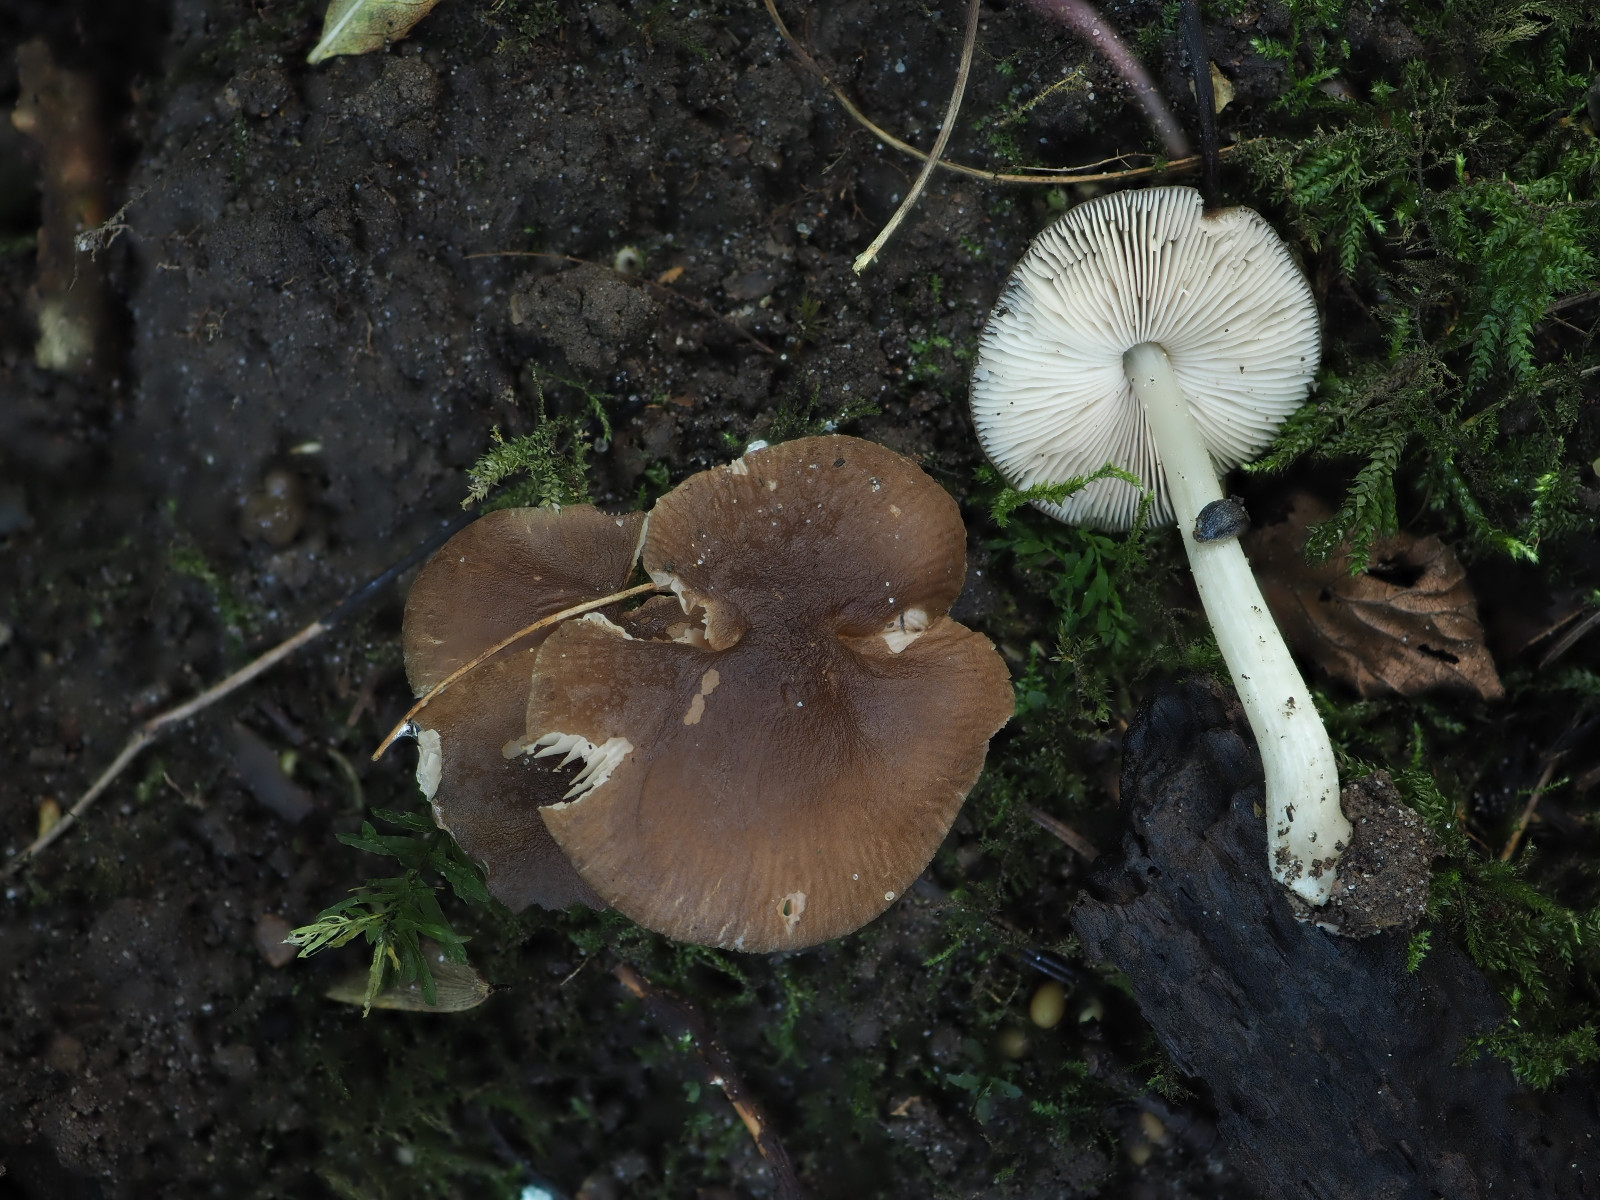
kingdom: Fungi
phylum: Basidiomycota
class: Agaricomycetes
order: Agaricales
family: Pluteaceae
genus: Pluteus
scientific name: Pluteus griseoluridus
